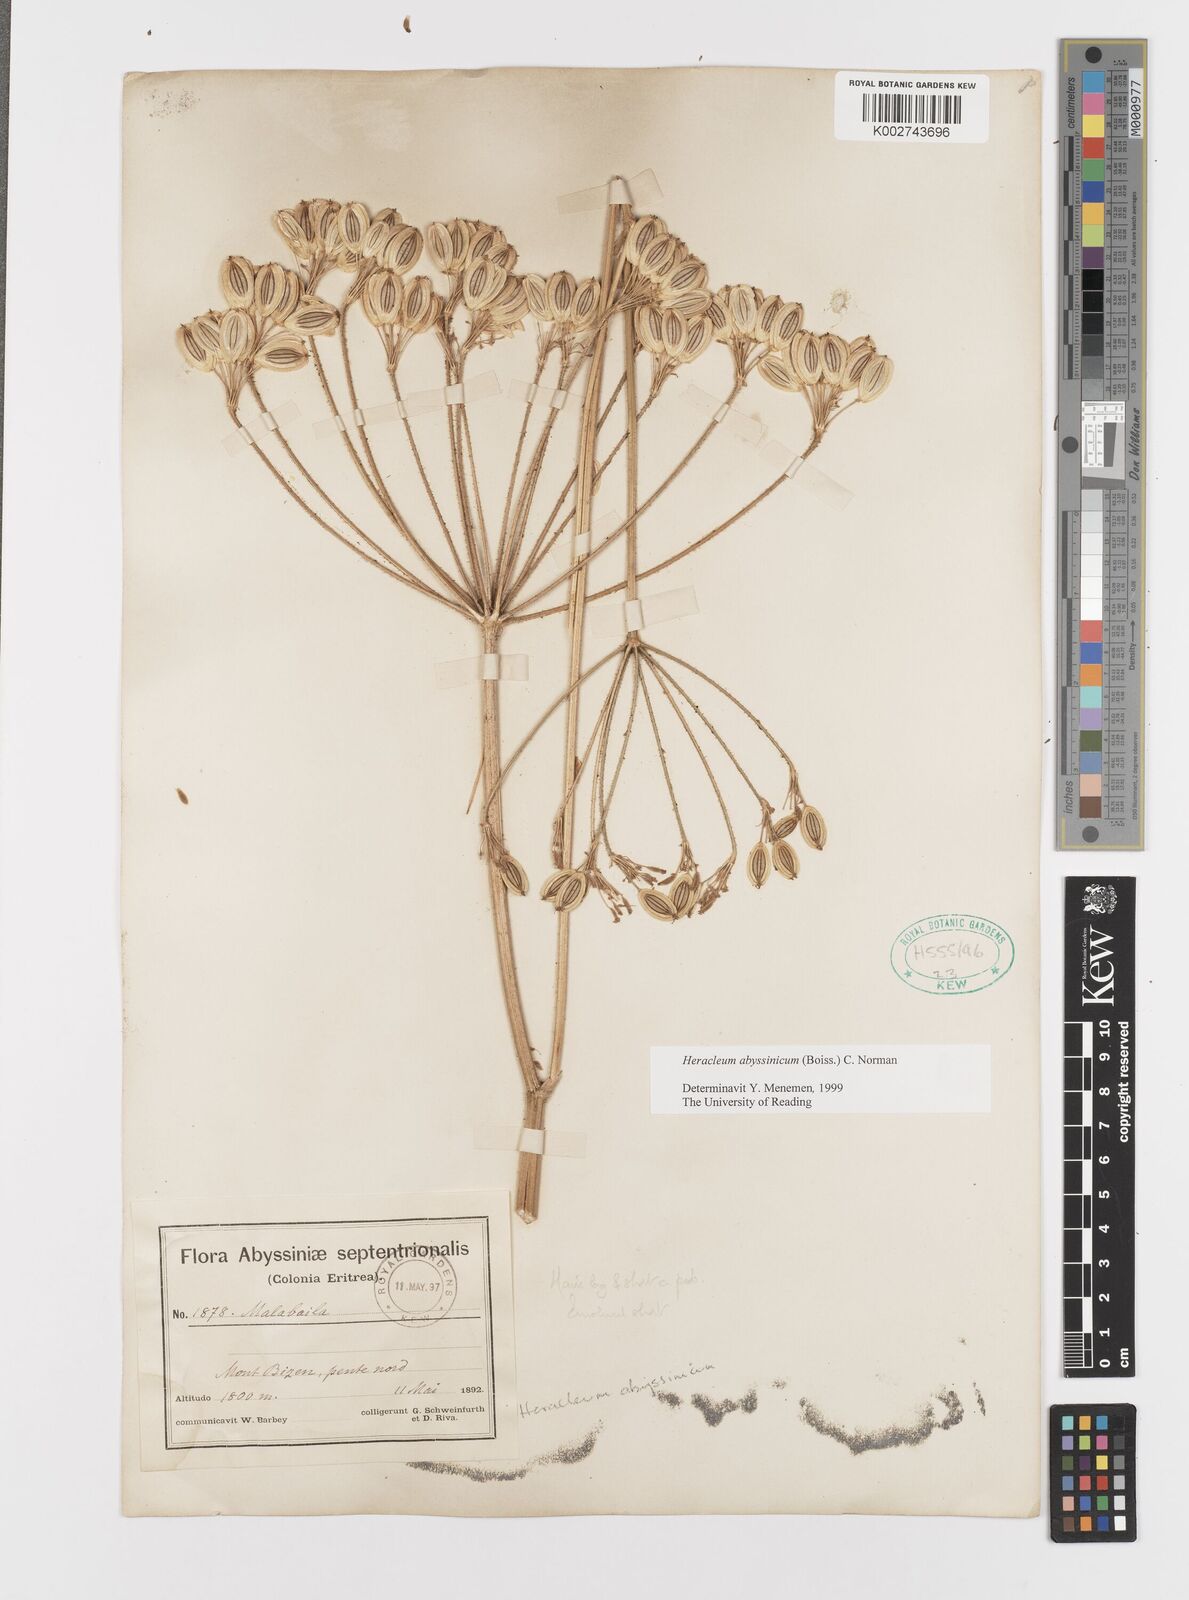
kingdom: Plantae
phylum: Tracheophyta
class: Magnoliopsida
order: Apiales
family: Apiaceae
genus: Heracleum
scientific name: Heracleum abyssinicum
